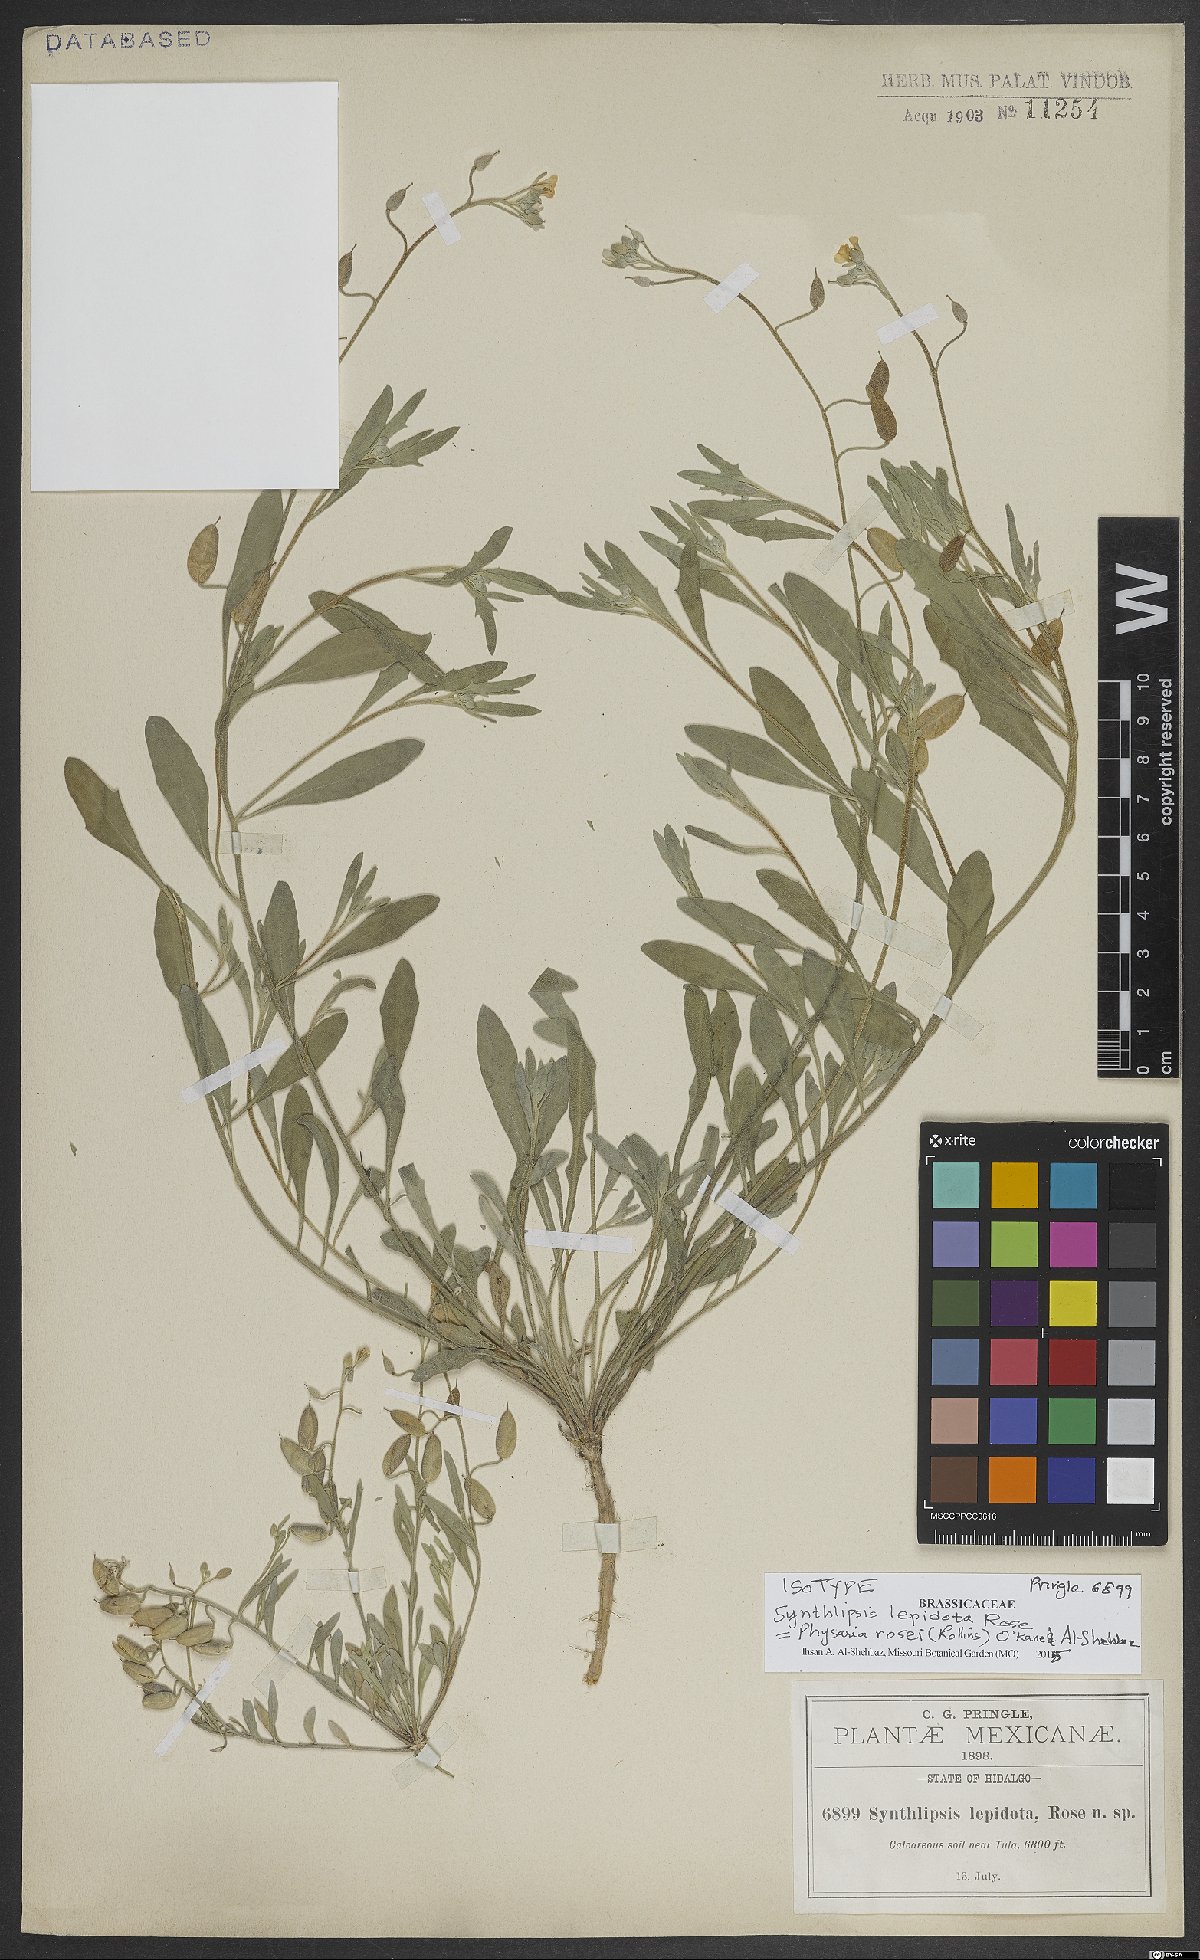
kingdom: Plantae
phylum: Tracheophyta
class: Magnoliopsida
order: Brassicales
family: Brassicaceae
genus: Physaria
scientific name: Physaria rosei
